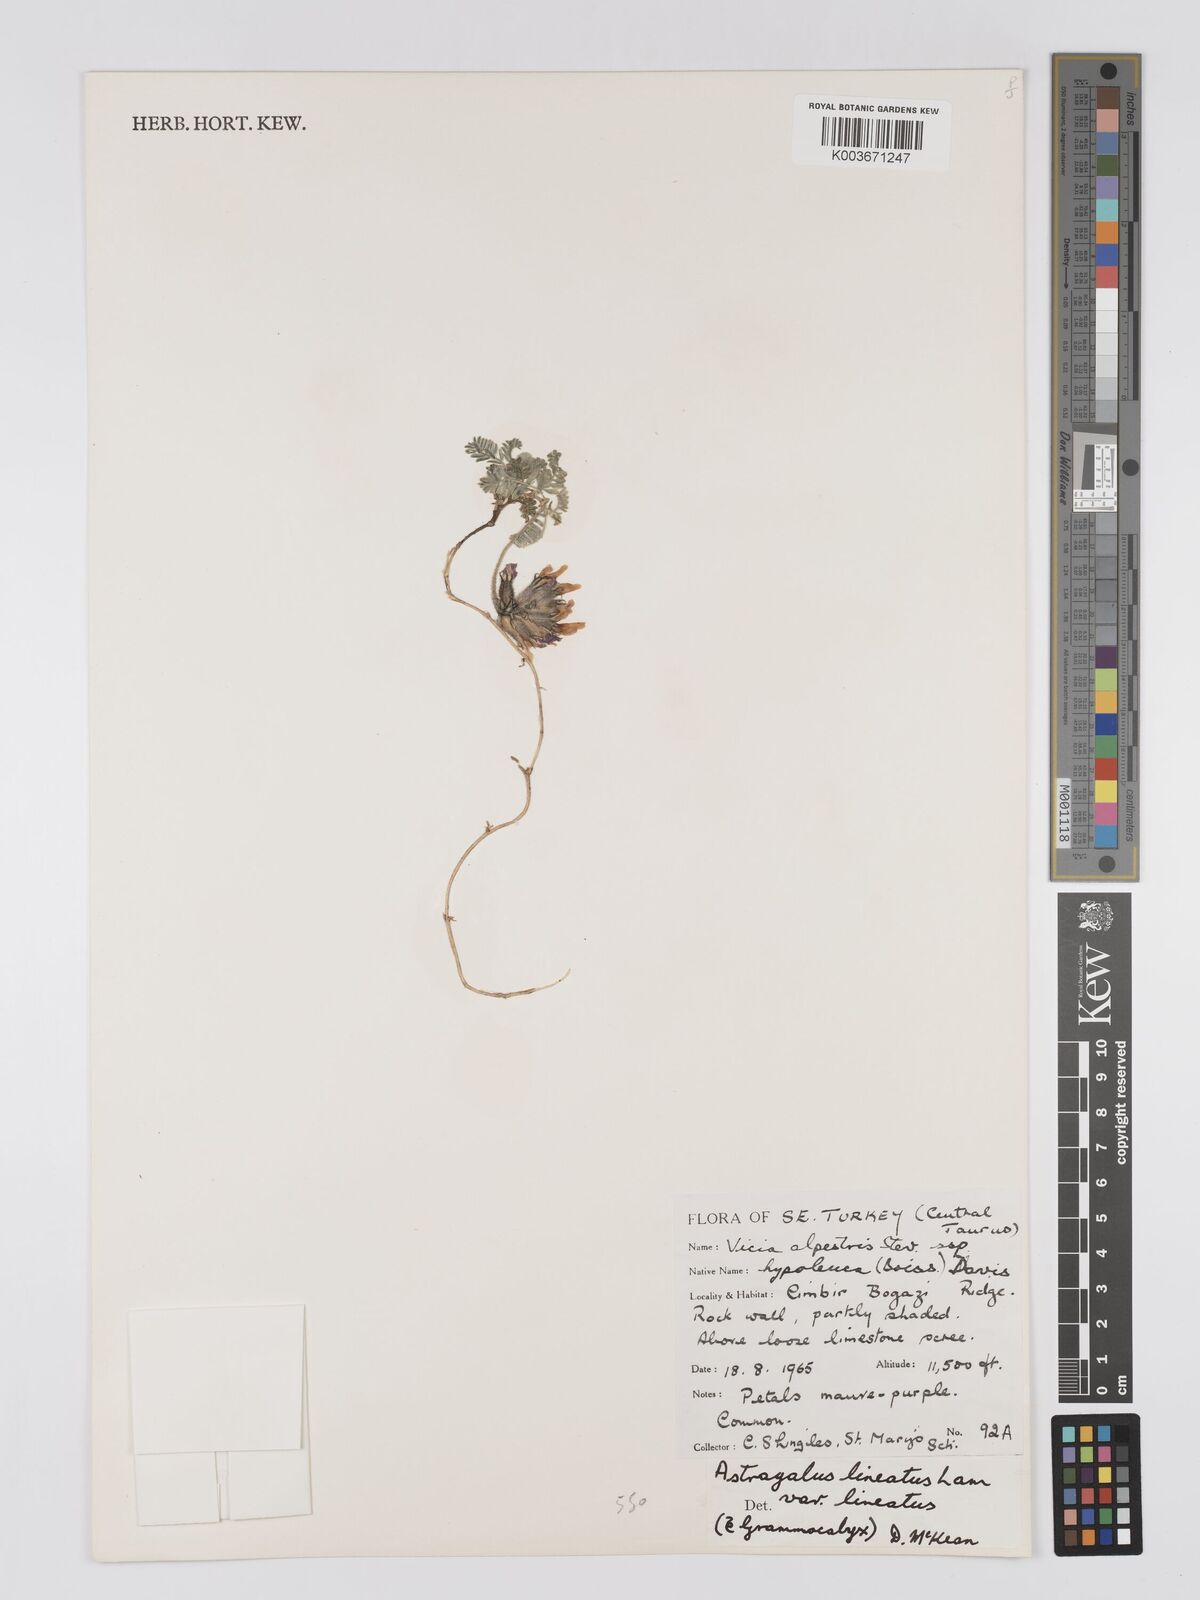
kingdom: Plantae
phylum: Tracheophyta
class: Magnoliopsida
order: Fabales
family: Fabaceae
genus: Astragalus
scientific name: Astragalus lineatus
